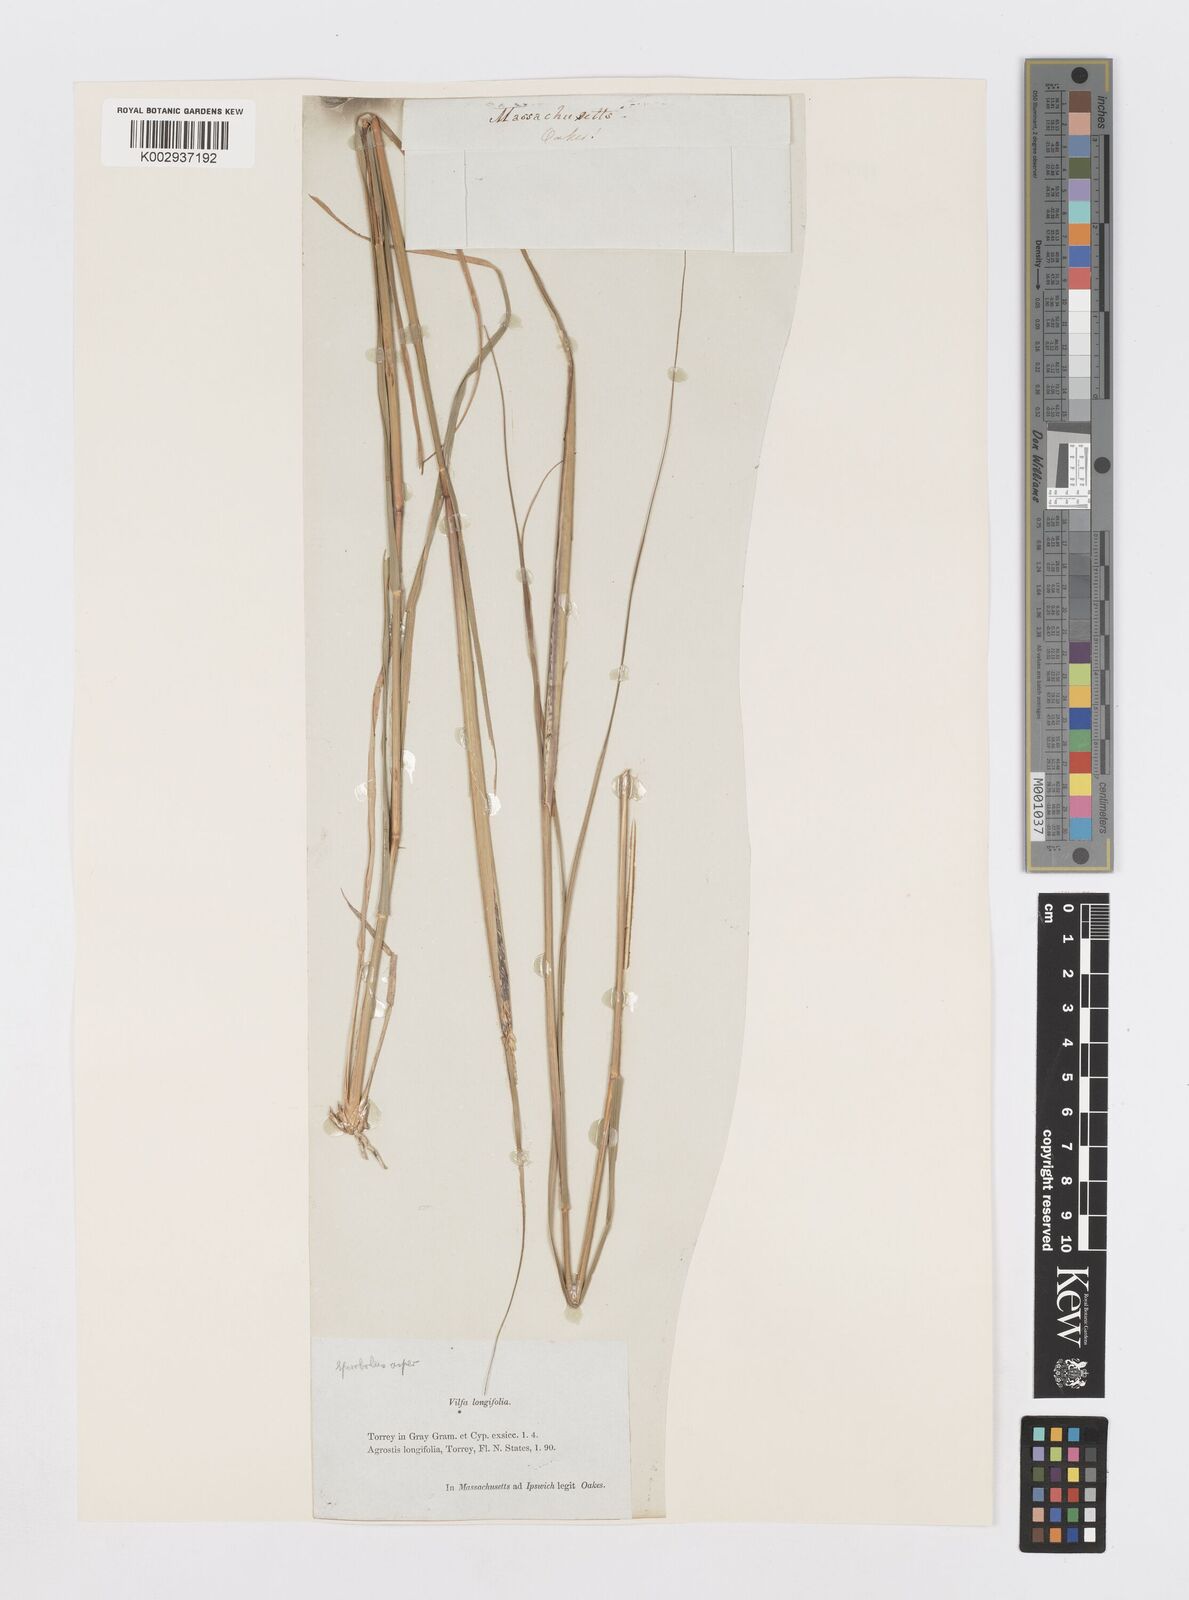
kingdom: Plantae
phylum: Tracheophyta
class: Liliopsida
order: Poales
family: Poaceae
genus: Sporobolus
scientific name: Sporobolus compositus
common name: Rough dropseed
